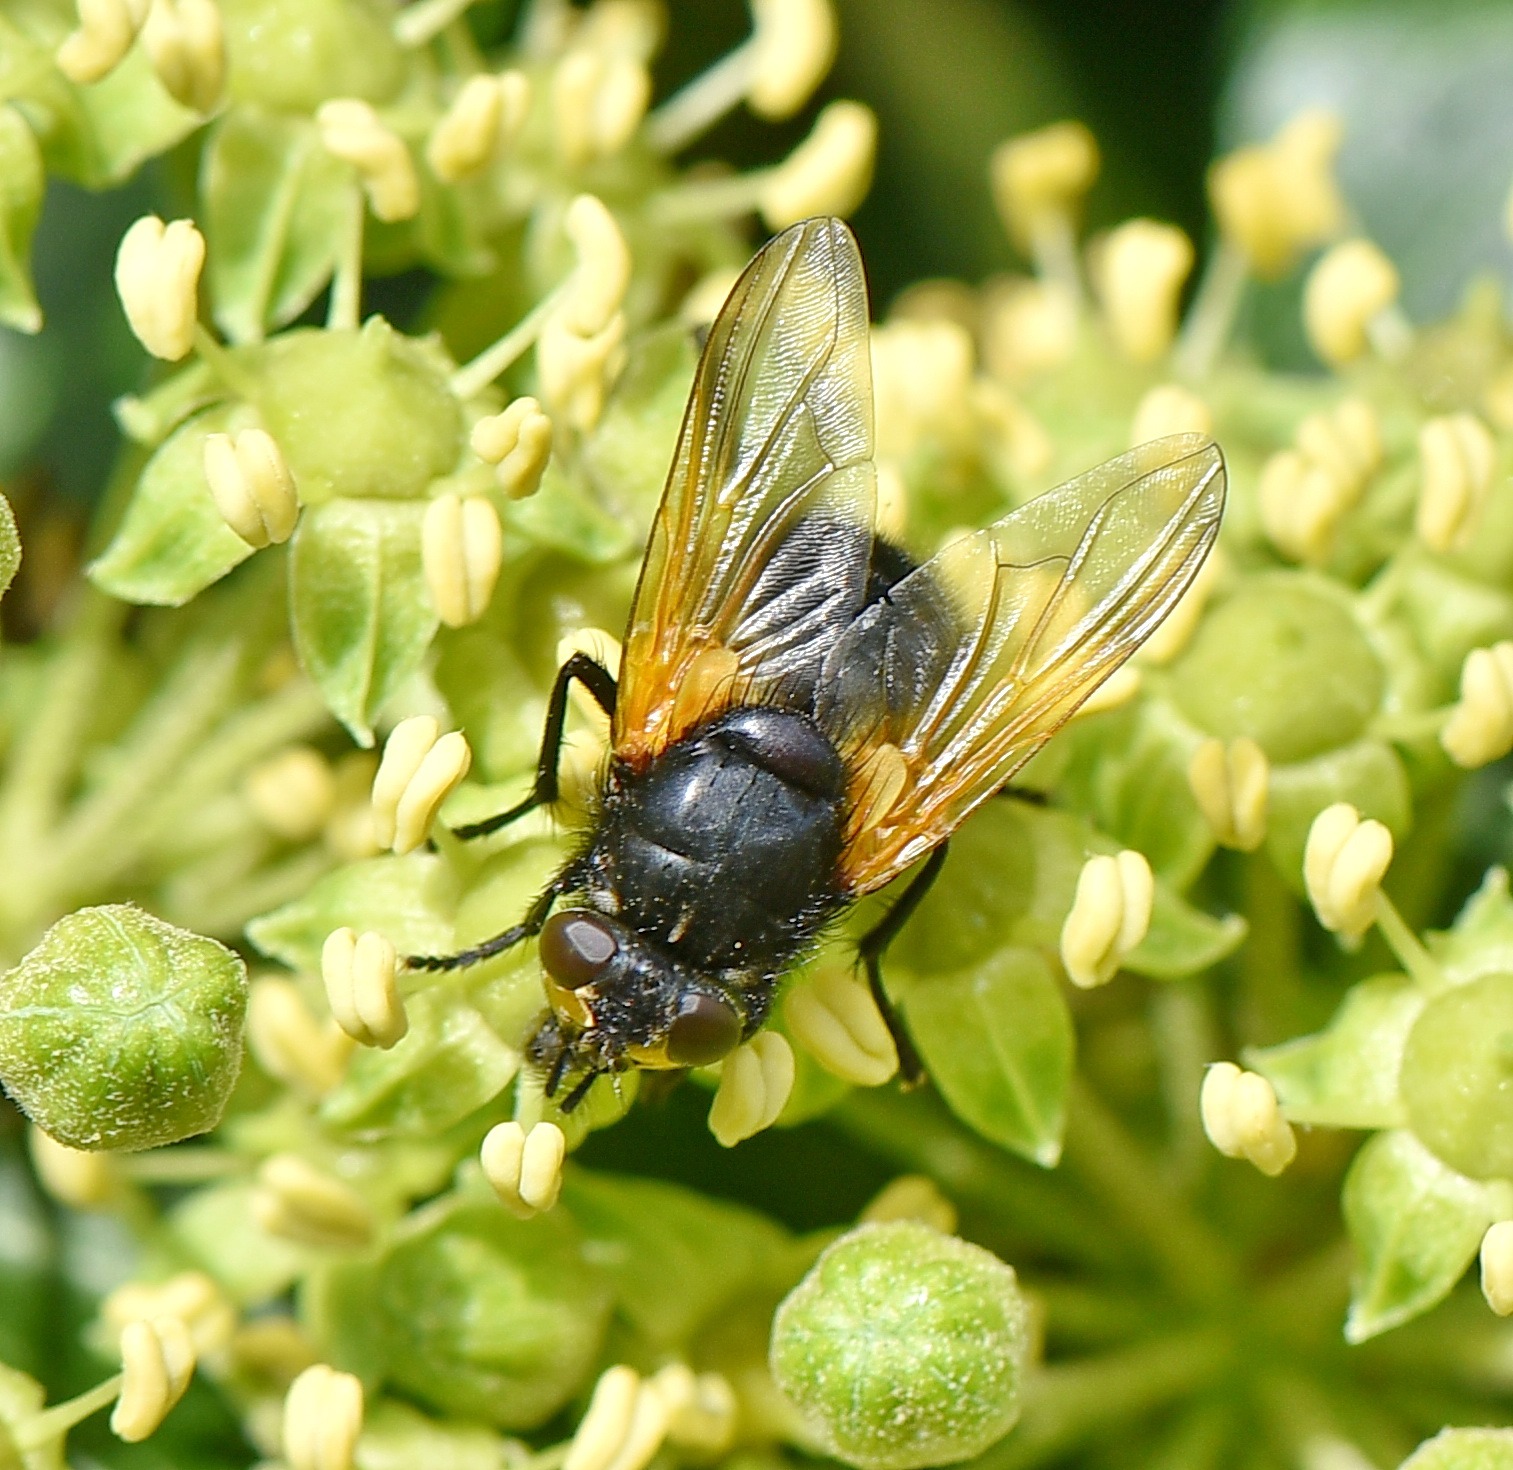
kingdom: Animalia
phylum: Arthropoda
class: Insecta
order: Diptera
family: Muscidae
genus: Mesembrina
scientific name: Mesembrina meridiana
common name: Gulvinget flue
